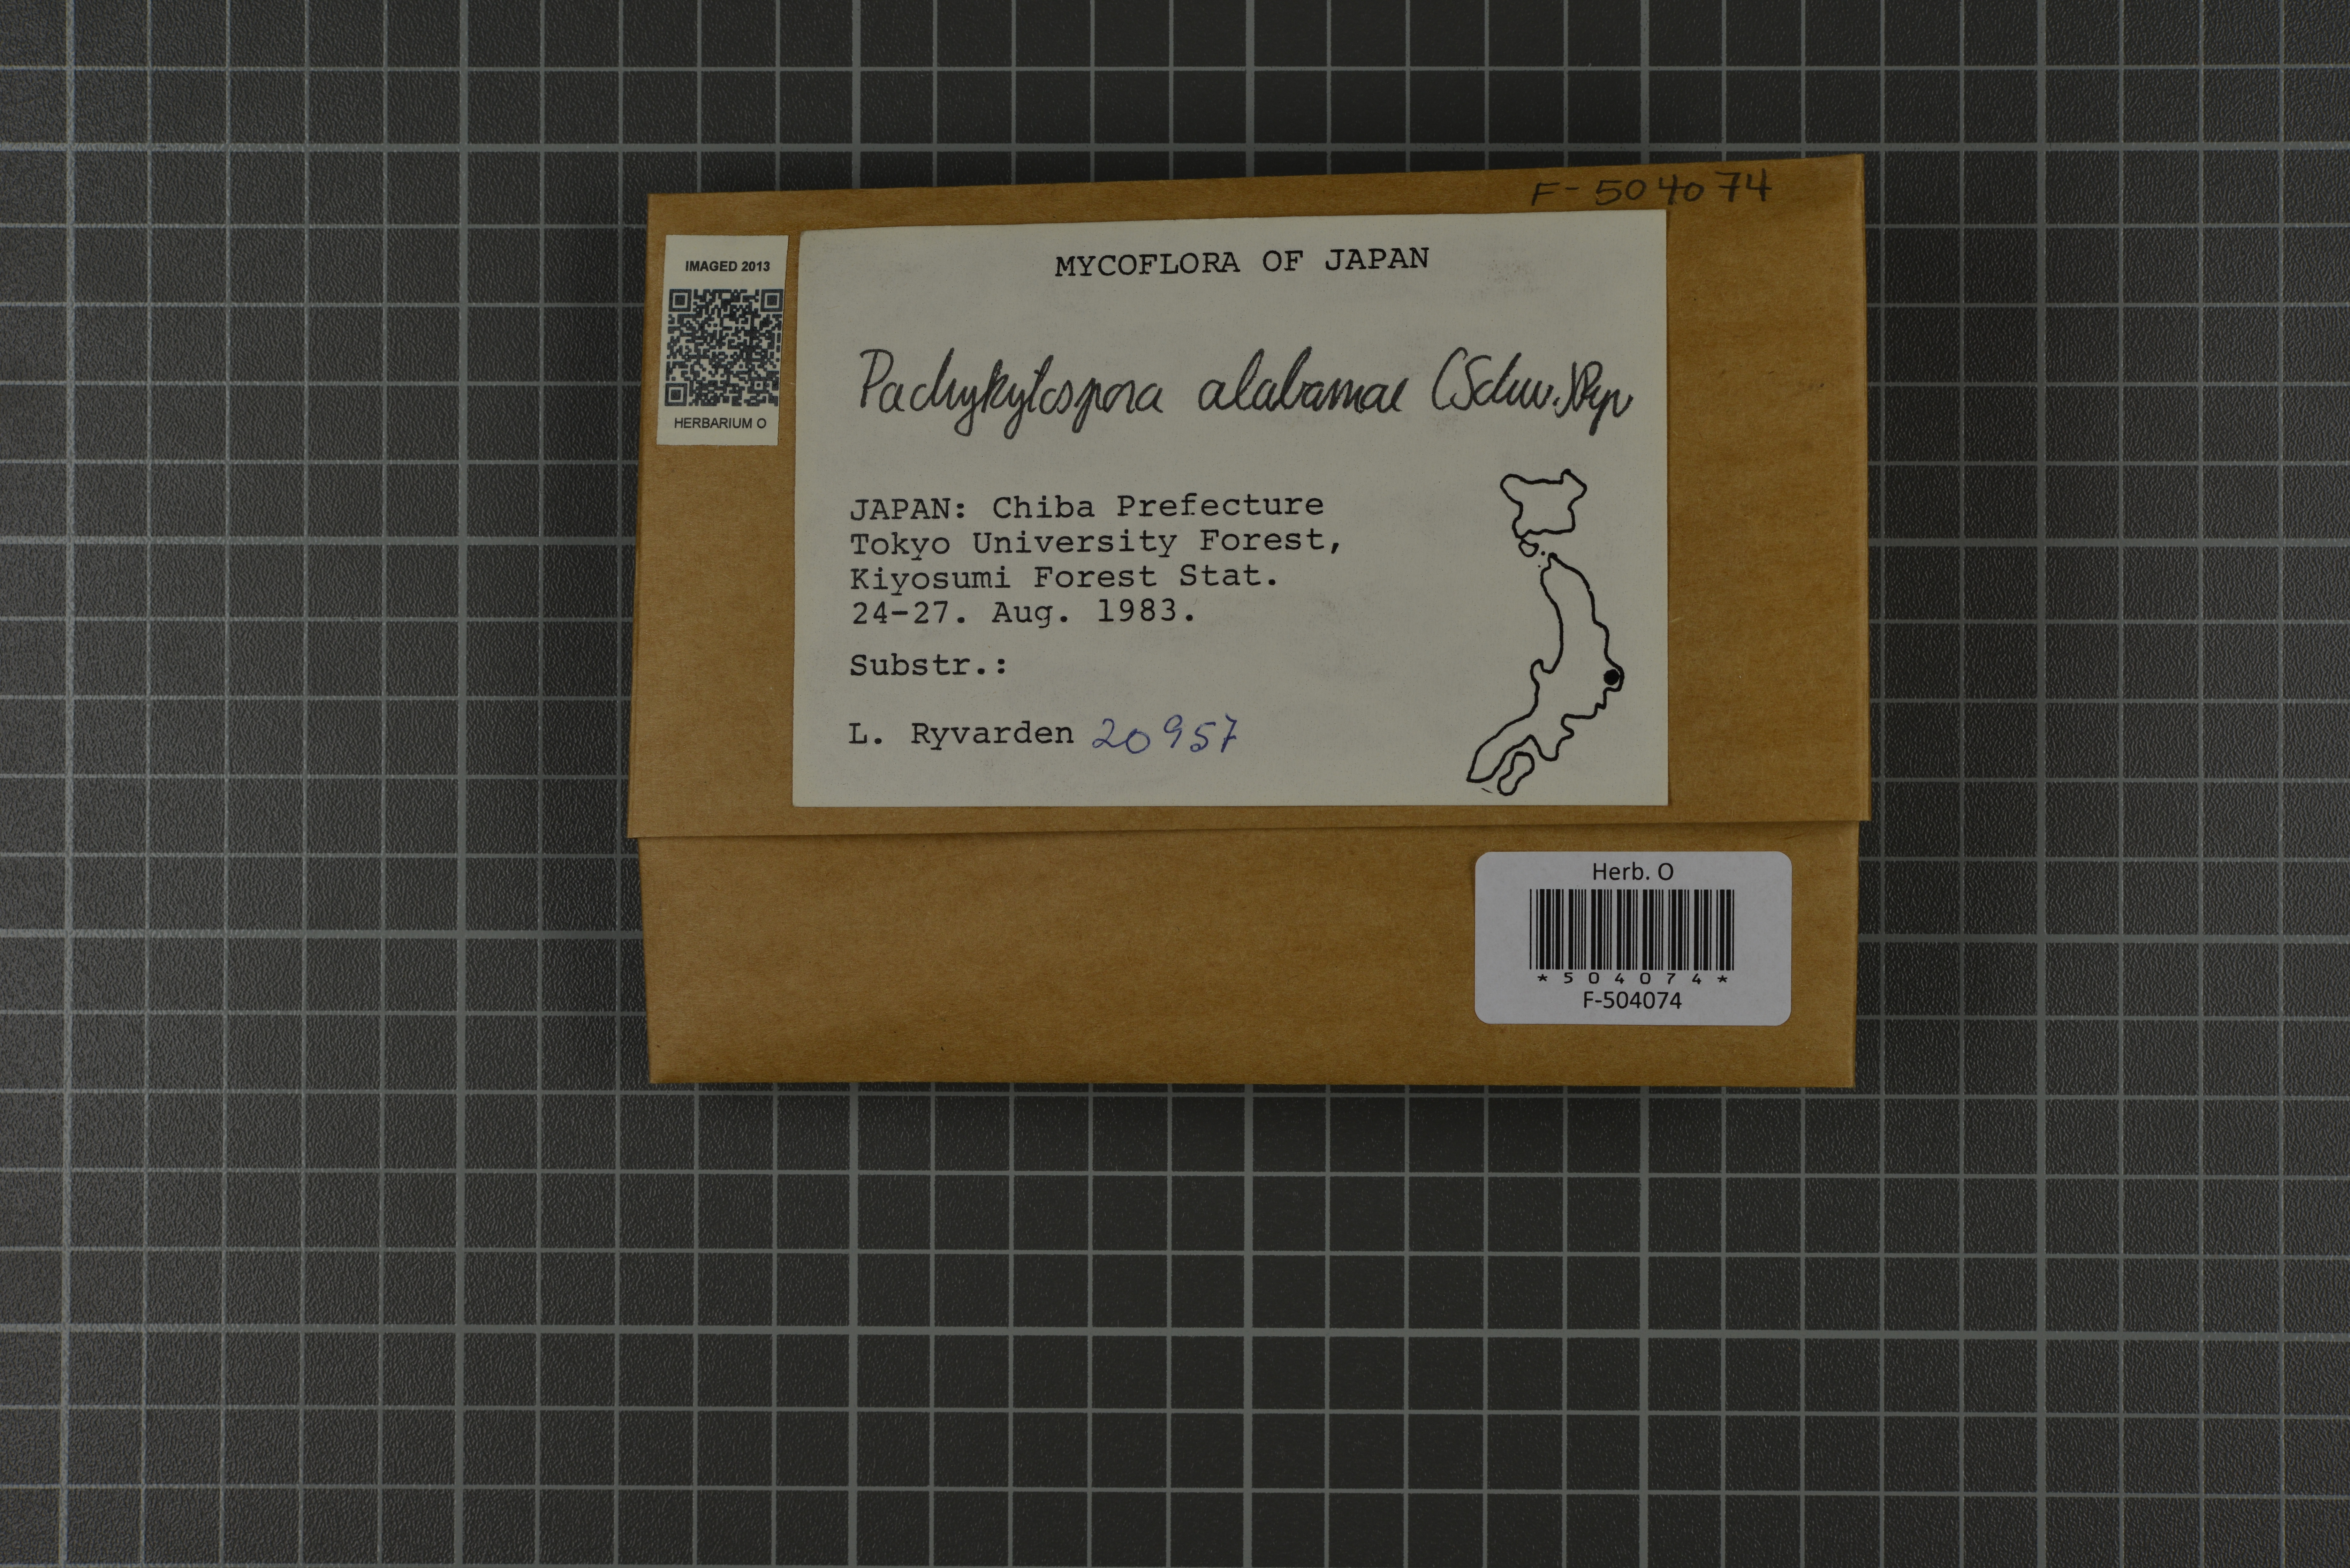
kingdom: Fungi
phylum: Basidiomycota
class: Agaricomycetes
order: Polyporales
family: Polyporaceae
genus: Pachykytospora
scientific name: Pachykytospora alabamae
